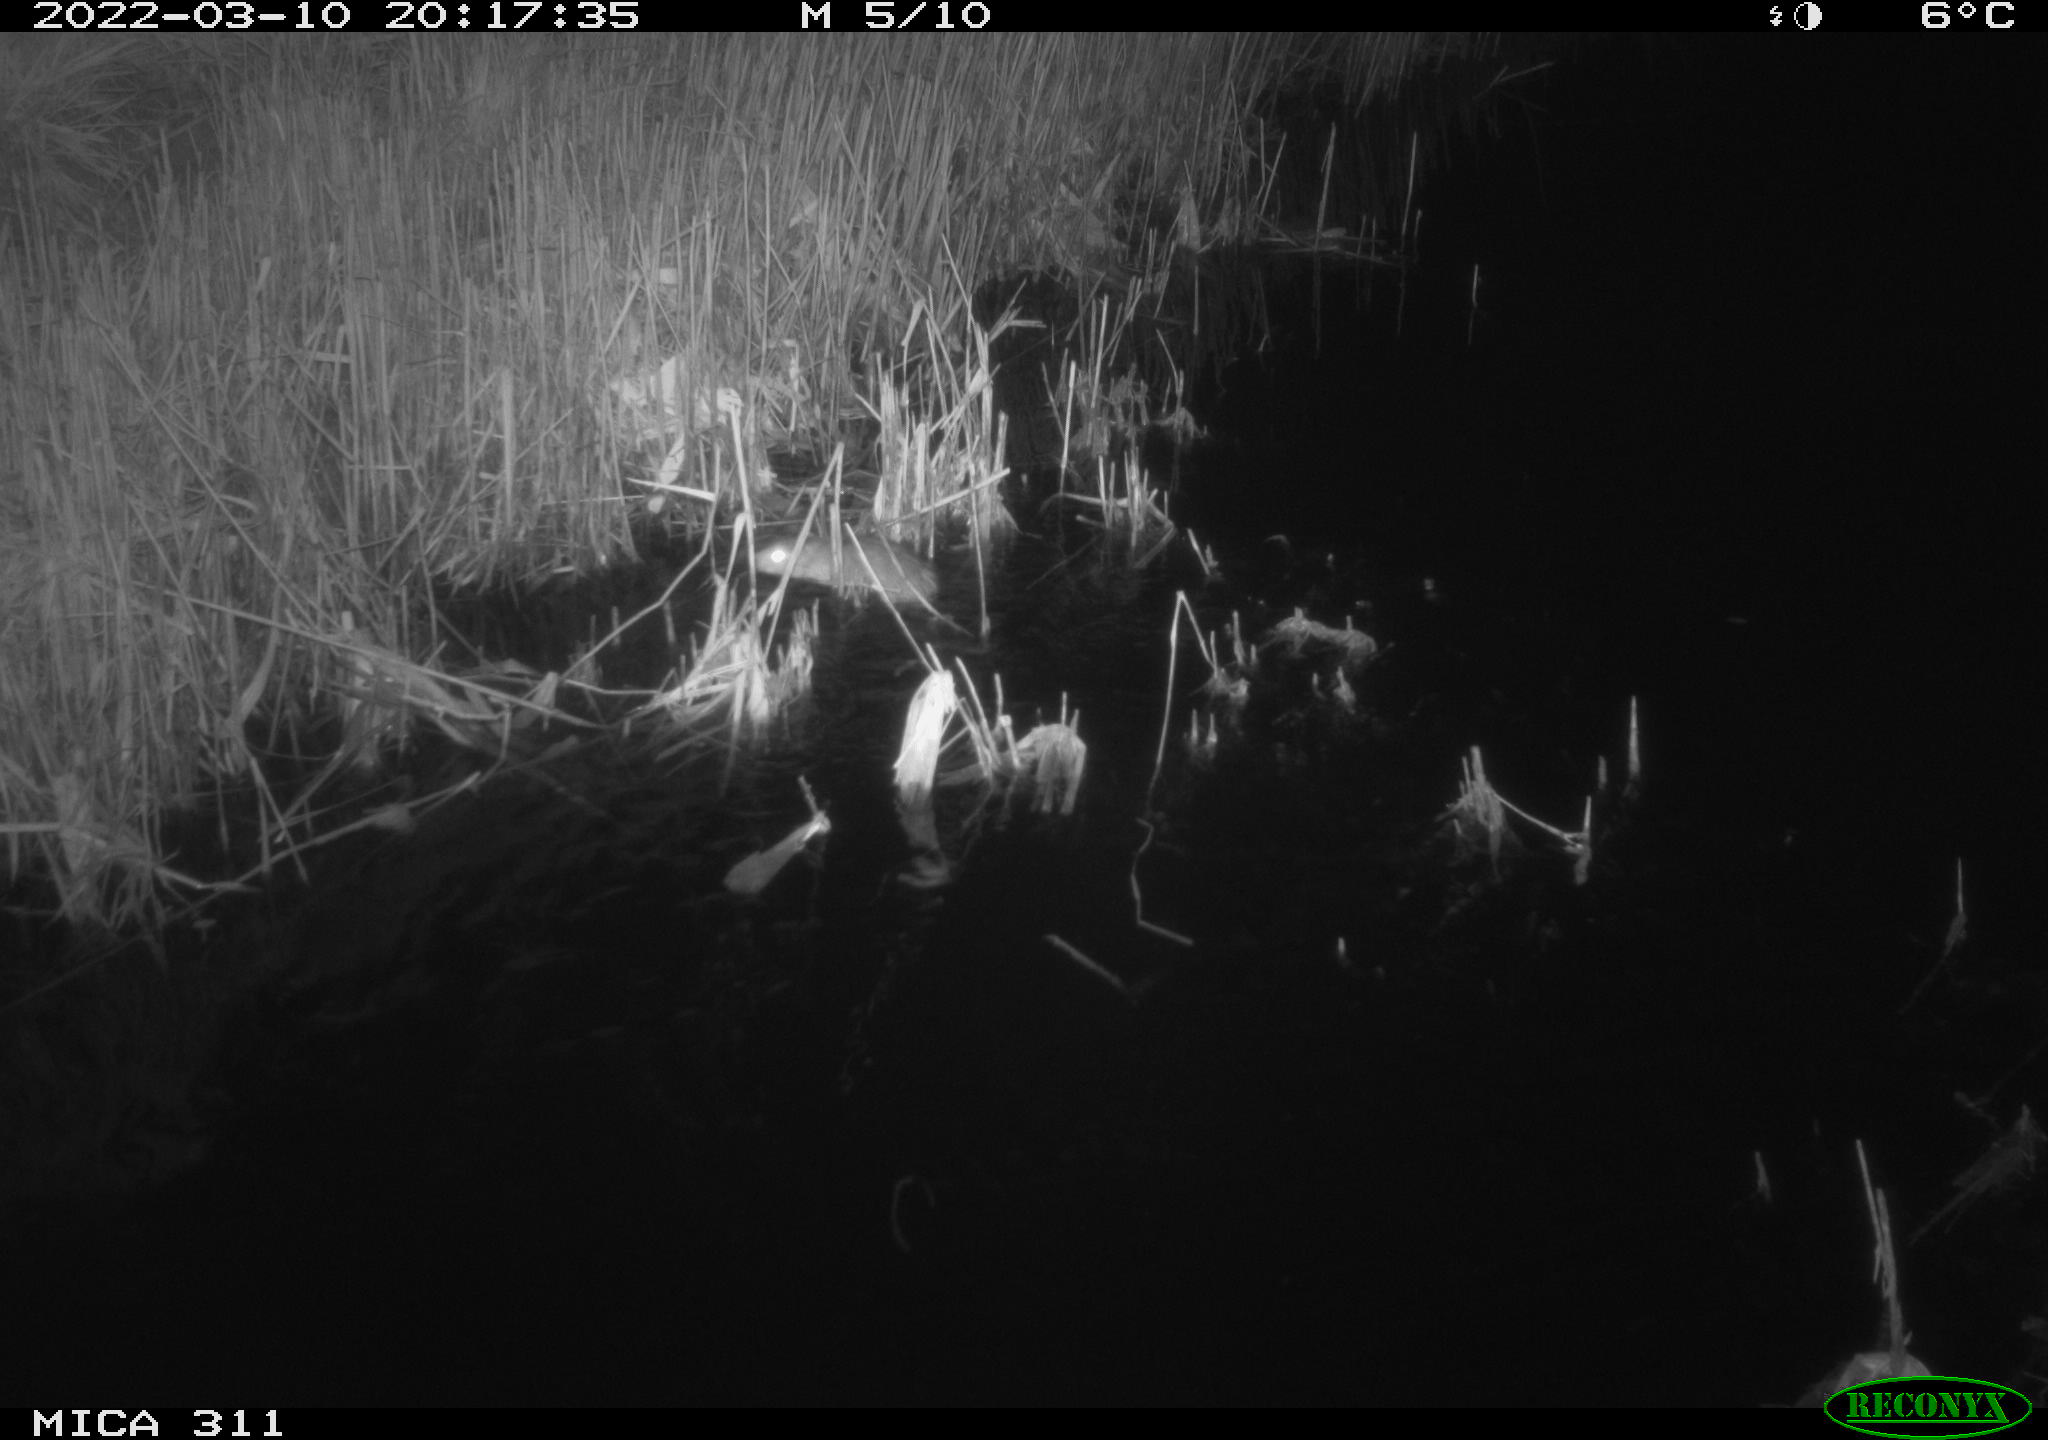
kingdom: Animalia
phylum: Chordata
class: Mammalia
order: Rodentia
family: Muridae
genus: Rattus
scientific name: Rattus norvegicus
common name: Brown rat
